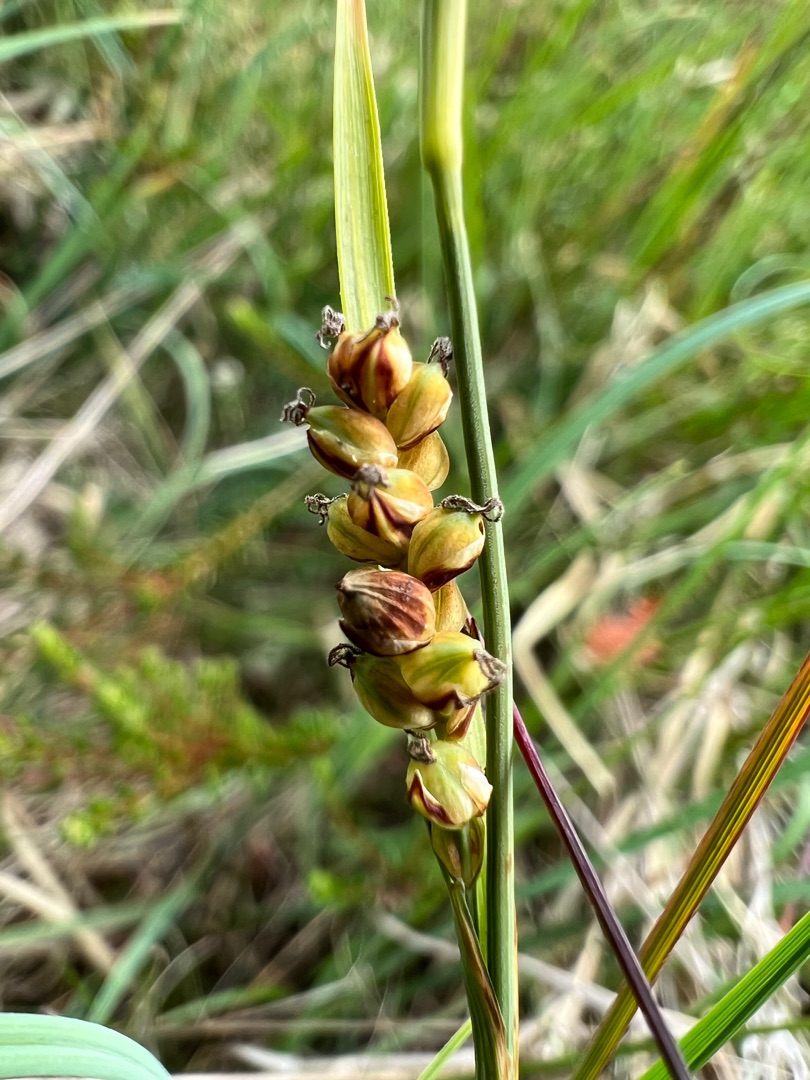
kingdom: Plantae
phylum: Tracheophyta
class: Liliopsida
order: Poales
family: Cyperaceae
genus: Carex
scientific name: Carex panicea
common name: Hirse-star
